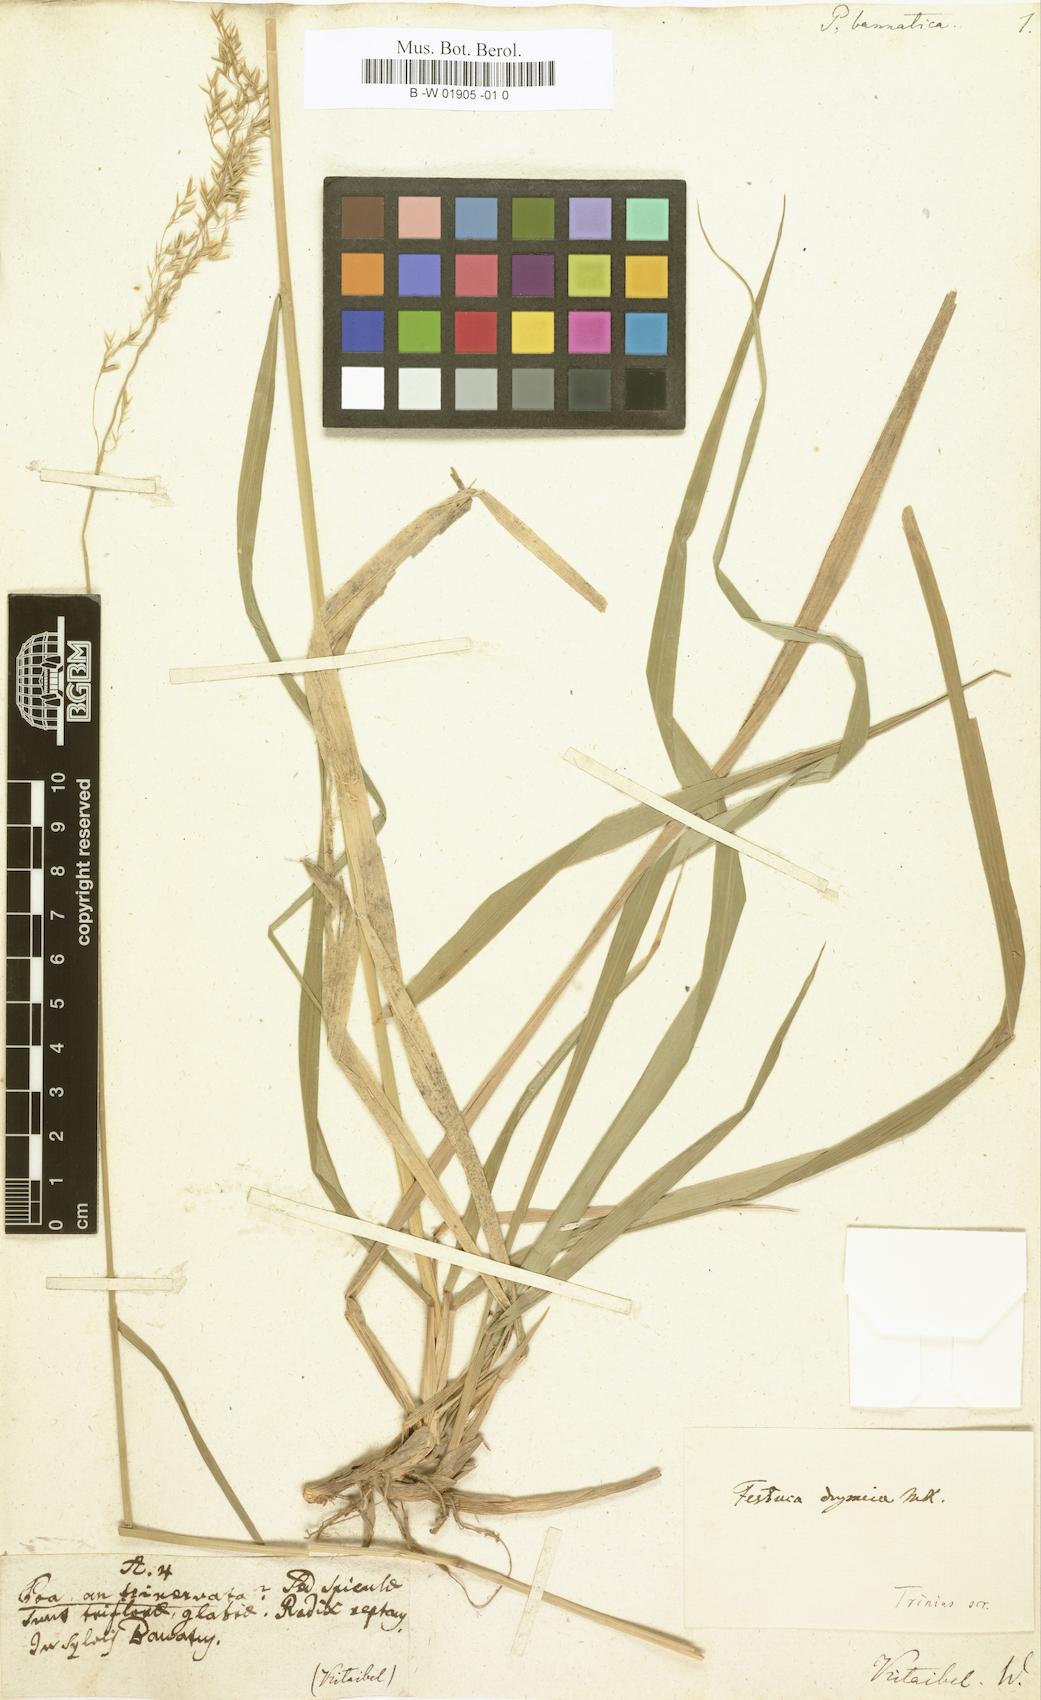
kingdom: Plantae
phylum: Tracheophyta
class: Liliopsida
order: Poales
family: Poaceae
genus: Festuca
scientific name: Festuca drymeja
